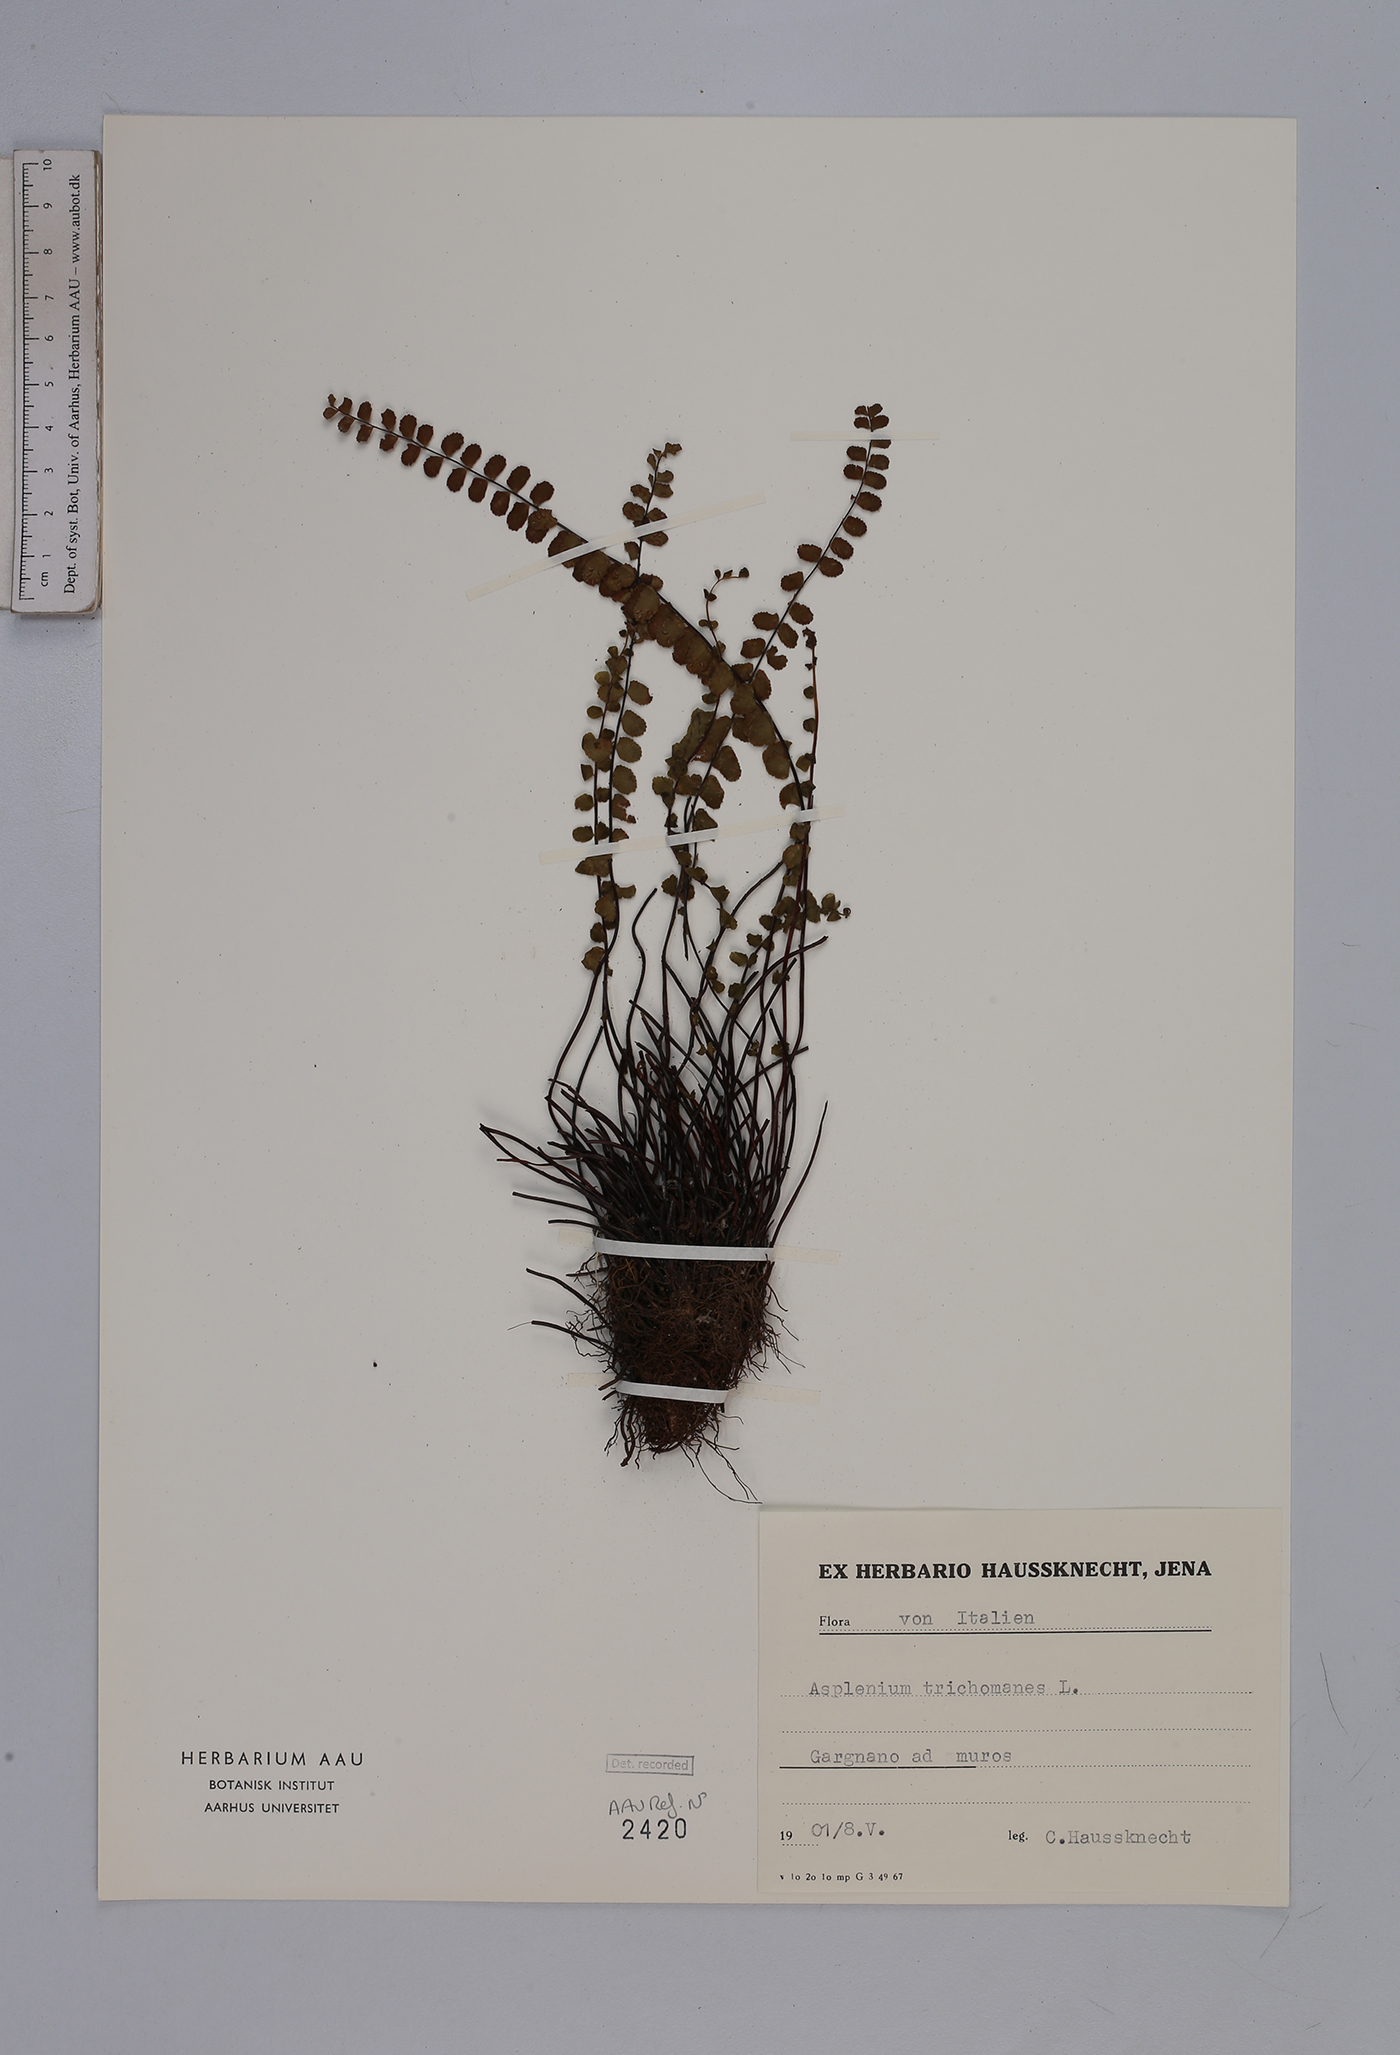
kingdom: Plantae
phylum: Tracheophyta
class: Polypodiopsida
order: Polypodiales
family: Aspleniaceae
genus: Asplenium
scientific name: Asplenium trichomanes
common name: Maidenhair spleenwort
